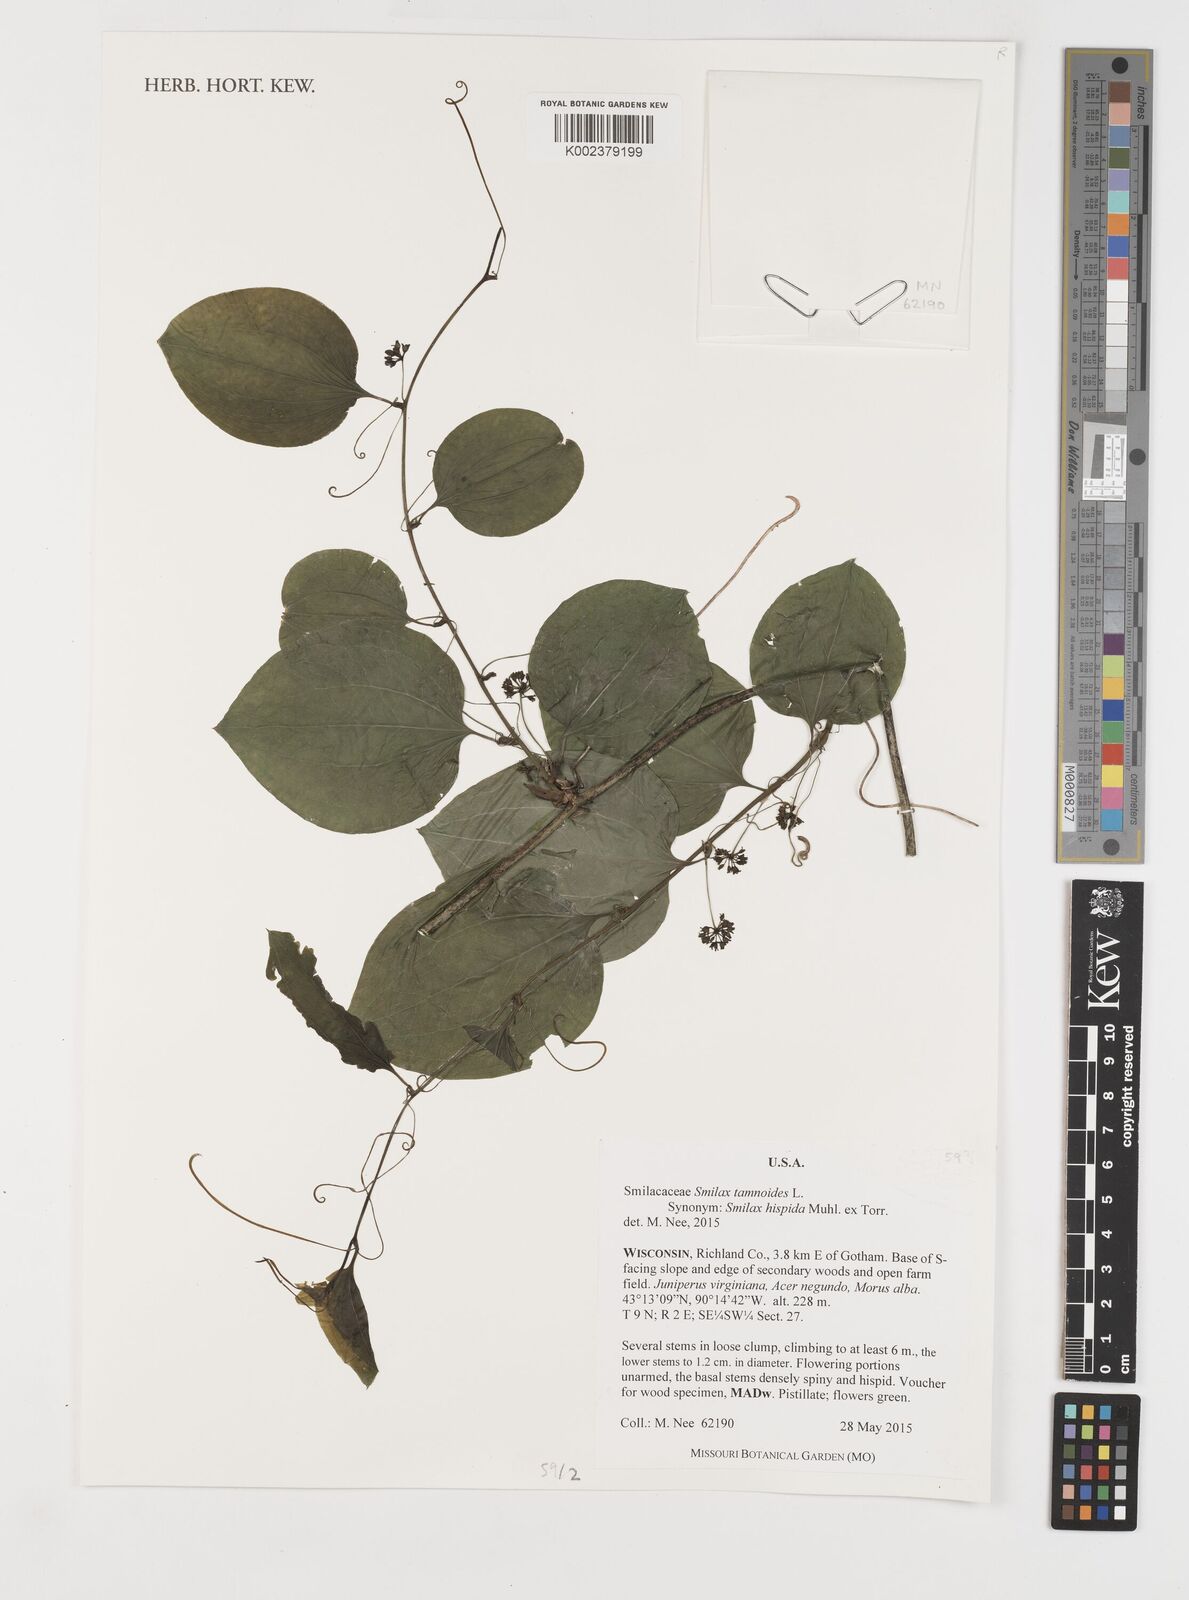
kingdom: Plantae
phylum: Tracheophyta
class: Liliopsida
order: Liliales
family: Smilacaceae
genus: Smilax
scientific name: Smilax pseudochina
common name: False chinaroot
